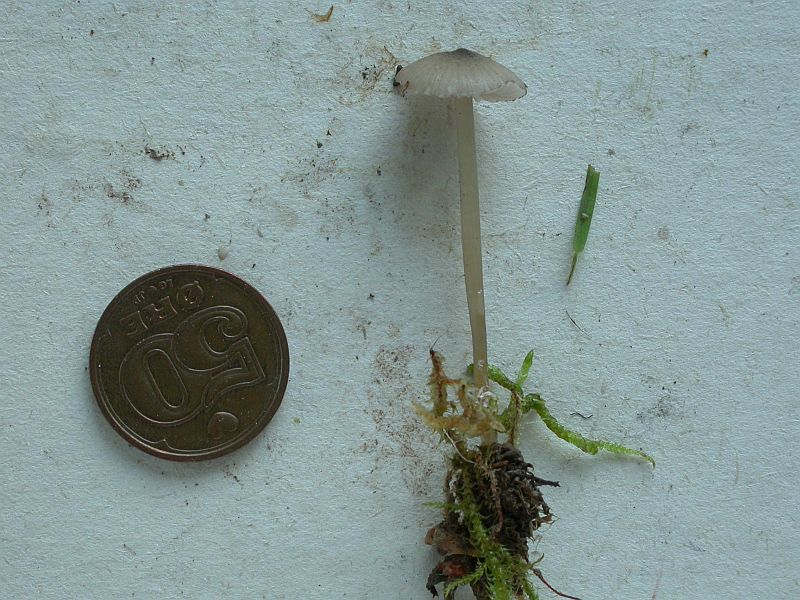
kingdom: Fungi
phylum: Basidiomycota
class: Agaricomycetes
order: Agaricales
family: Entolomataceae
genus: Entoloma
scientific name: Entoloma exile
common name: rødplettet rødblad
